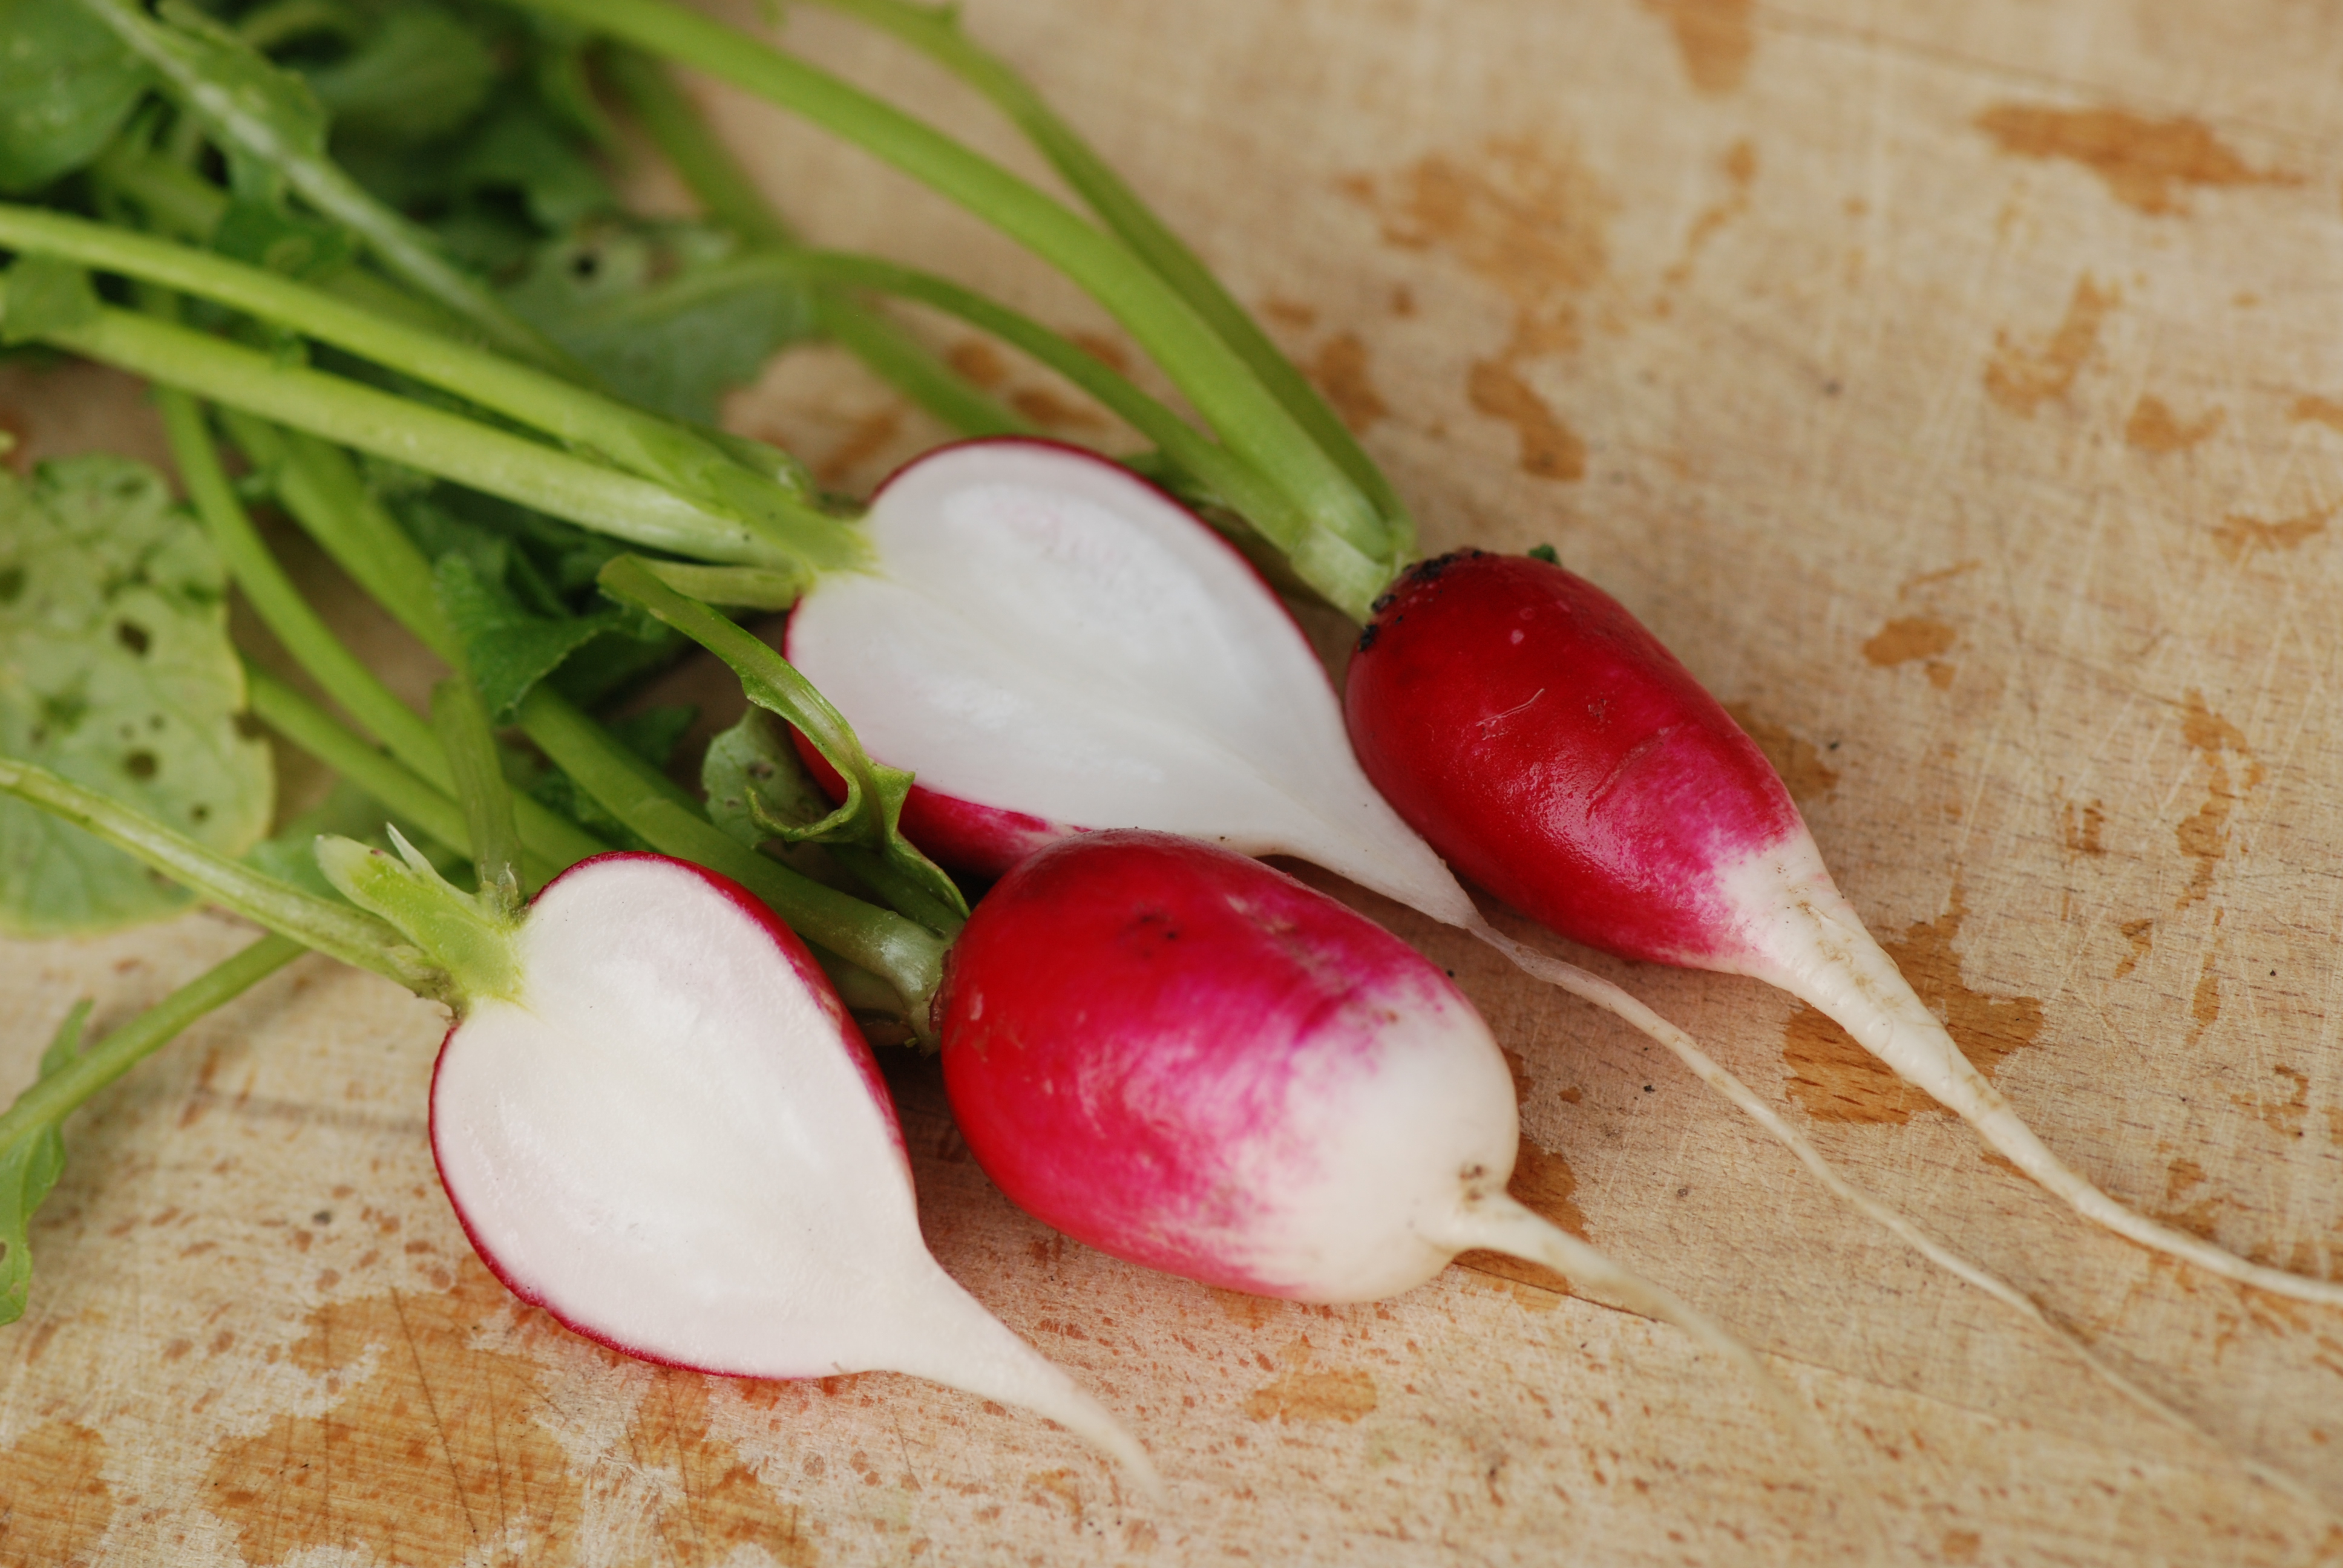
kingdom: Plantae
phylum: Tracheophyta
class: Magnoliopsida
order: Brassicales
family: Brassicaceae
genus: Raphanus
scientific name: Raphanus sativus
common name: Cultivated radish
